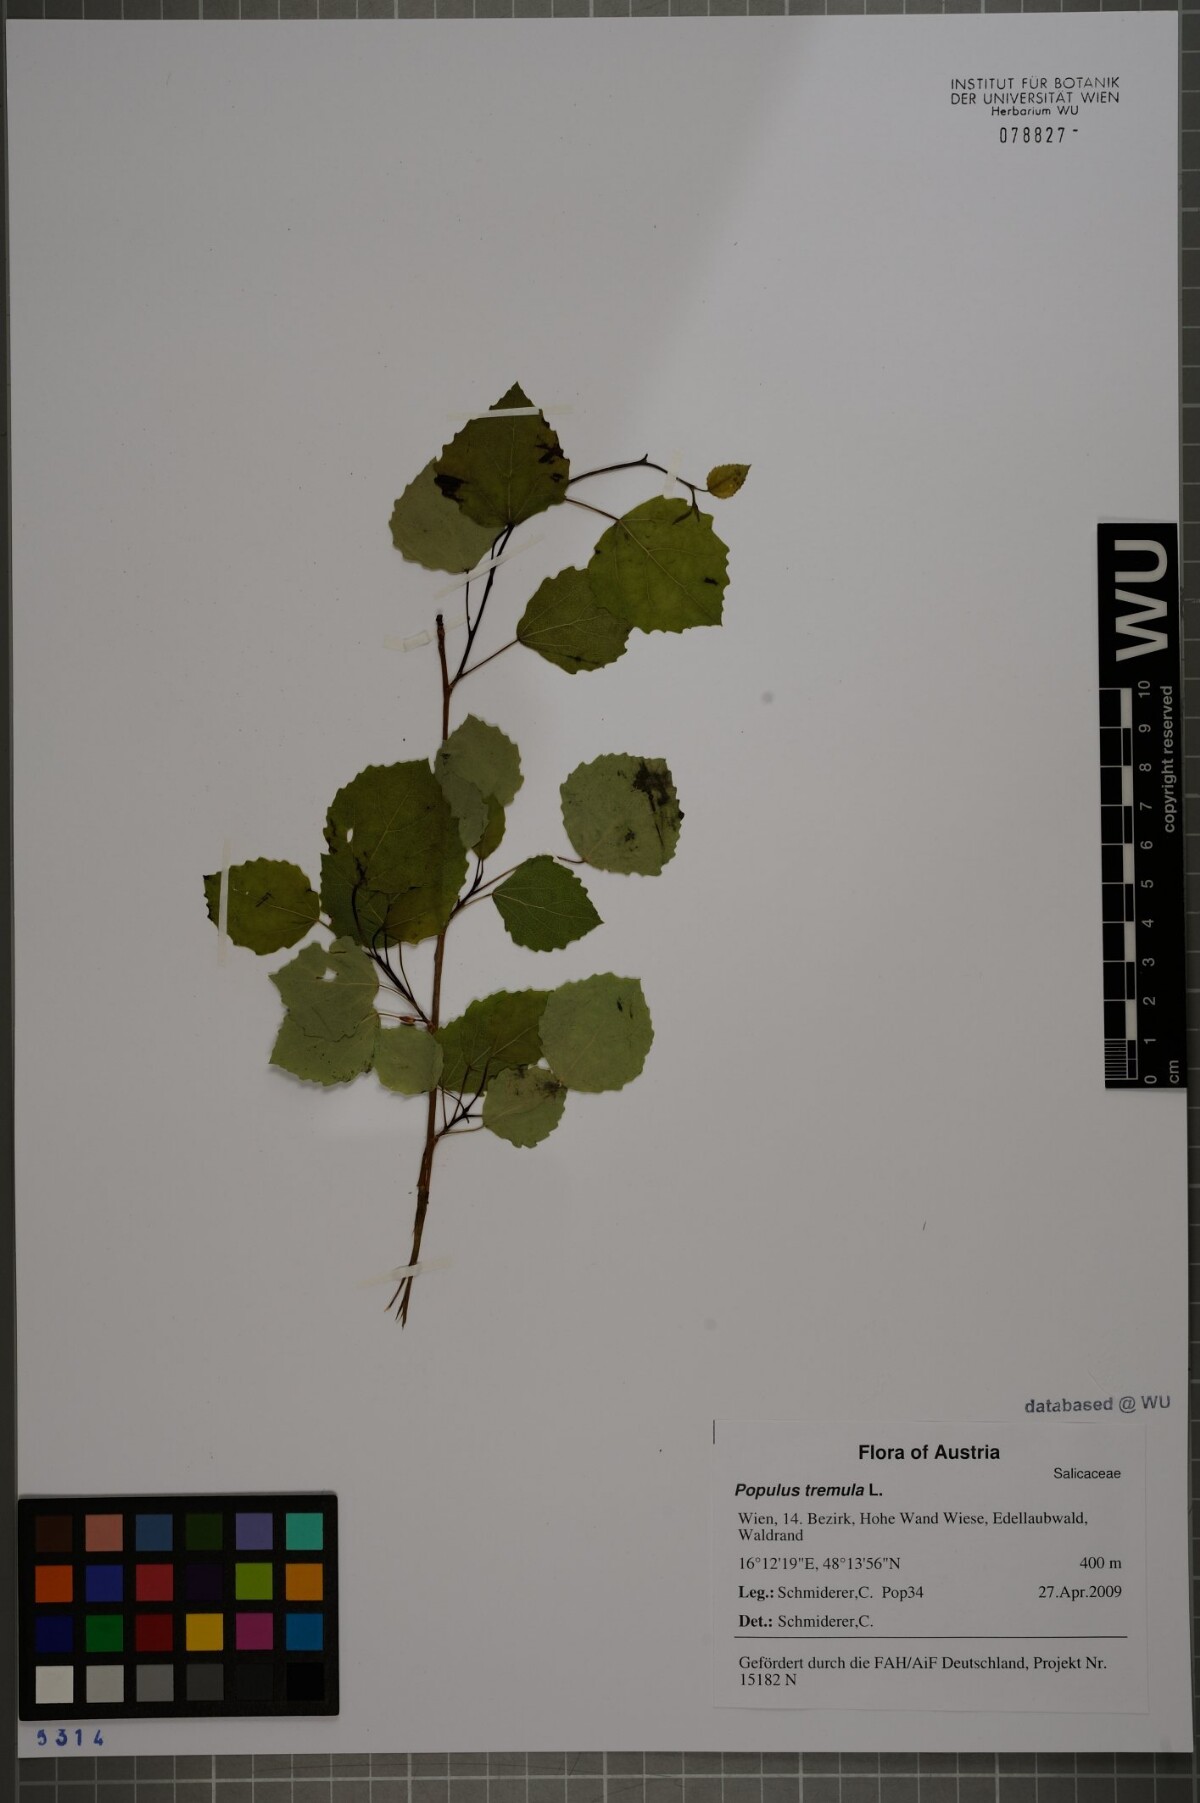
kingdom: Plantae
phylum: Tracheophyta
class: Magnoliopsida
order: Malpighiales
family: Salicaceae
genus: Populus
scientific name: Populus tremula
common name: European aspen
